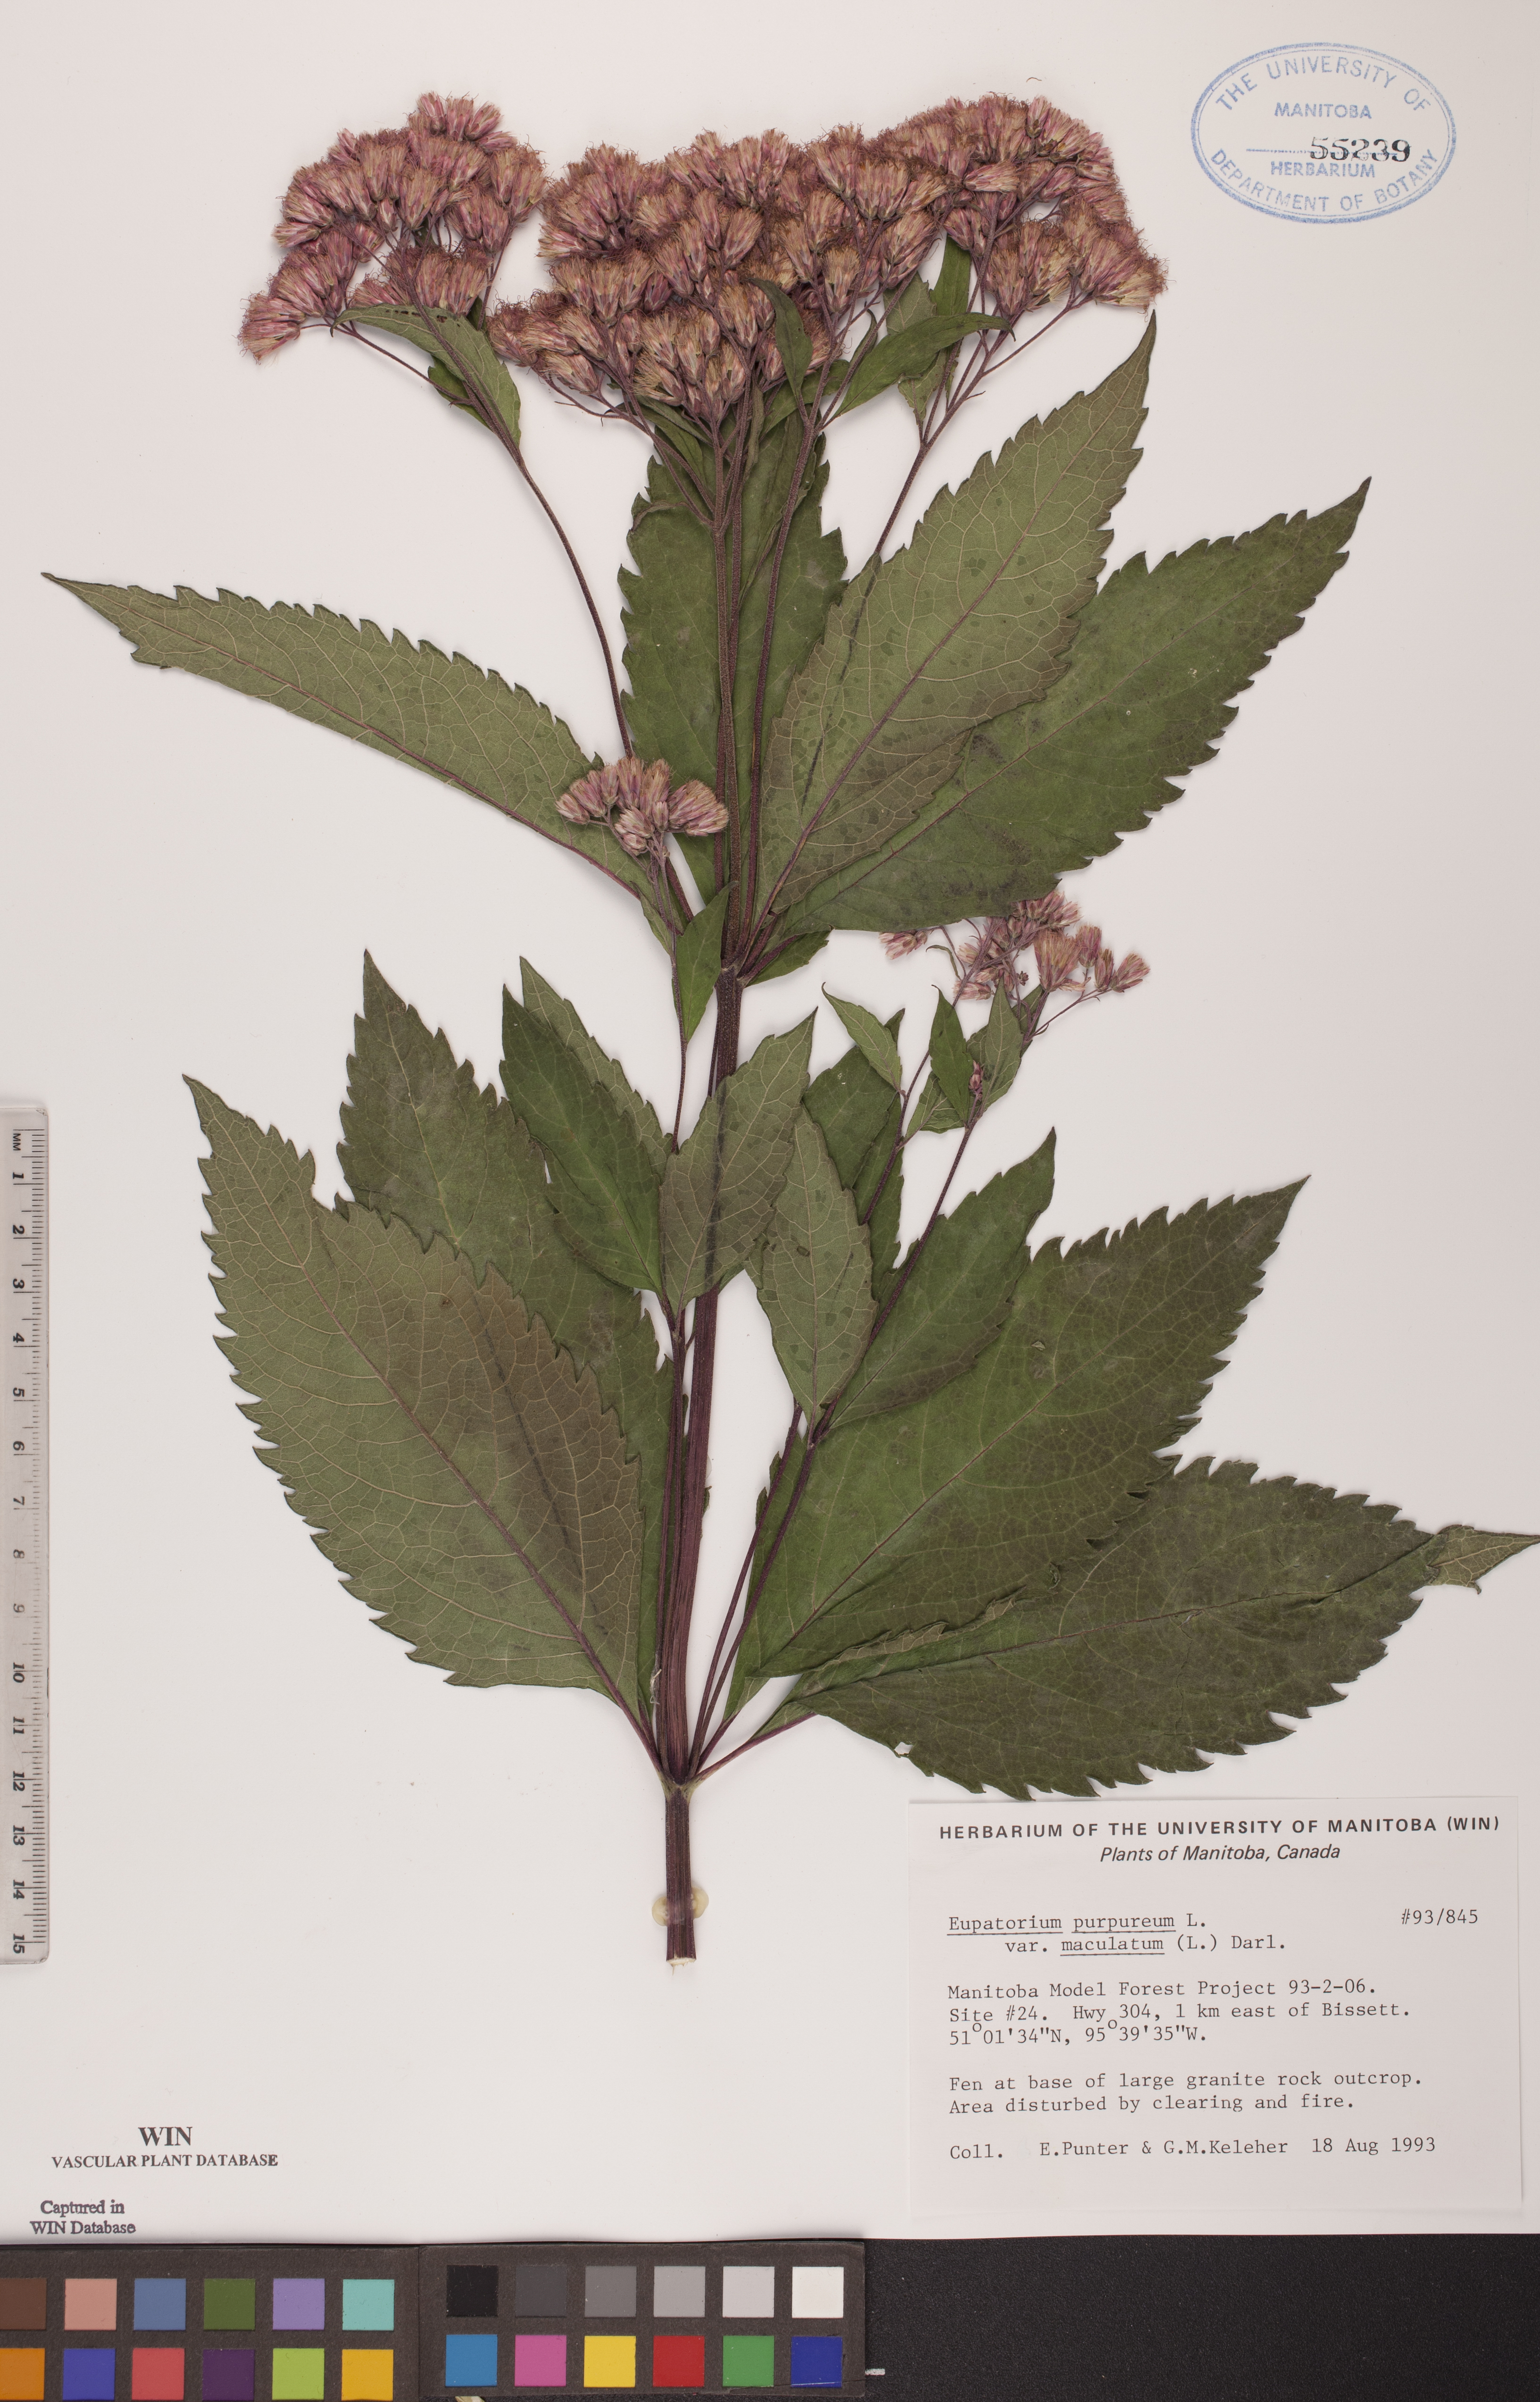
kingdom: Plantae
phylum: Tracheophyta
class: Magnoliopsida
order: Asterales
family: Asteraceae
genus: Eutrochium
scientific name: Eutrochium maculatum
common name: Spotted joe pye weed
